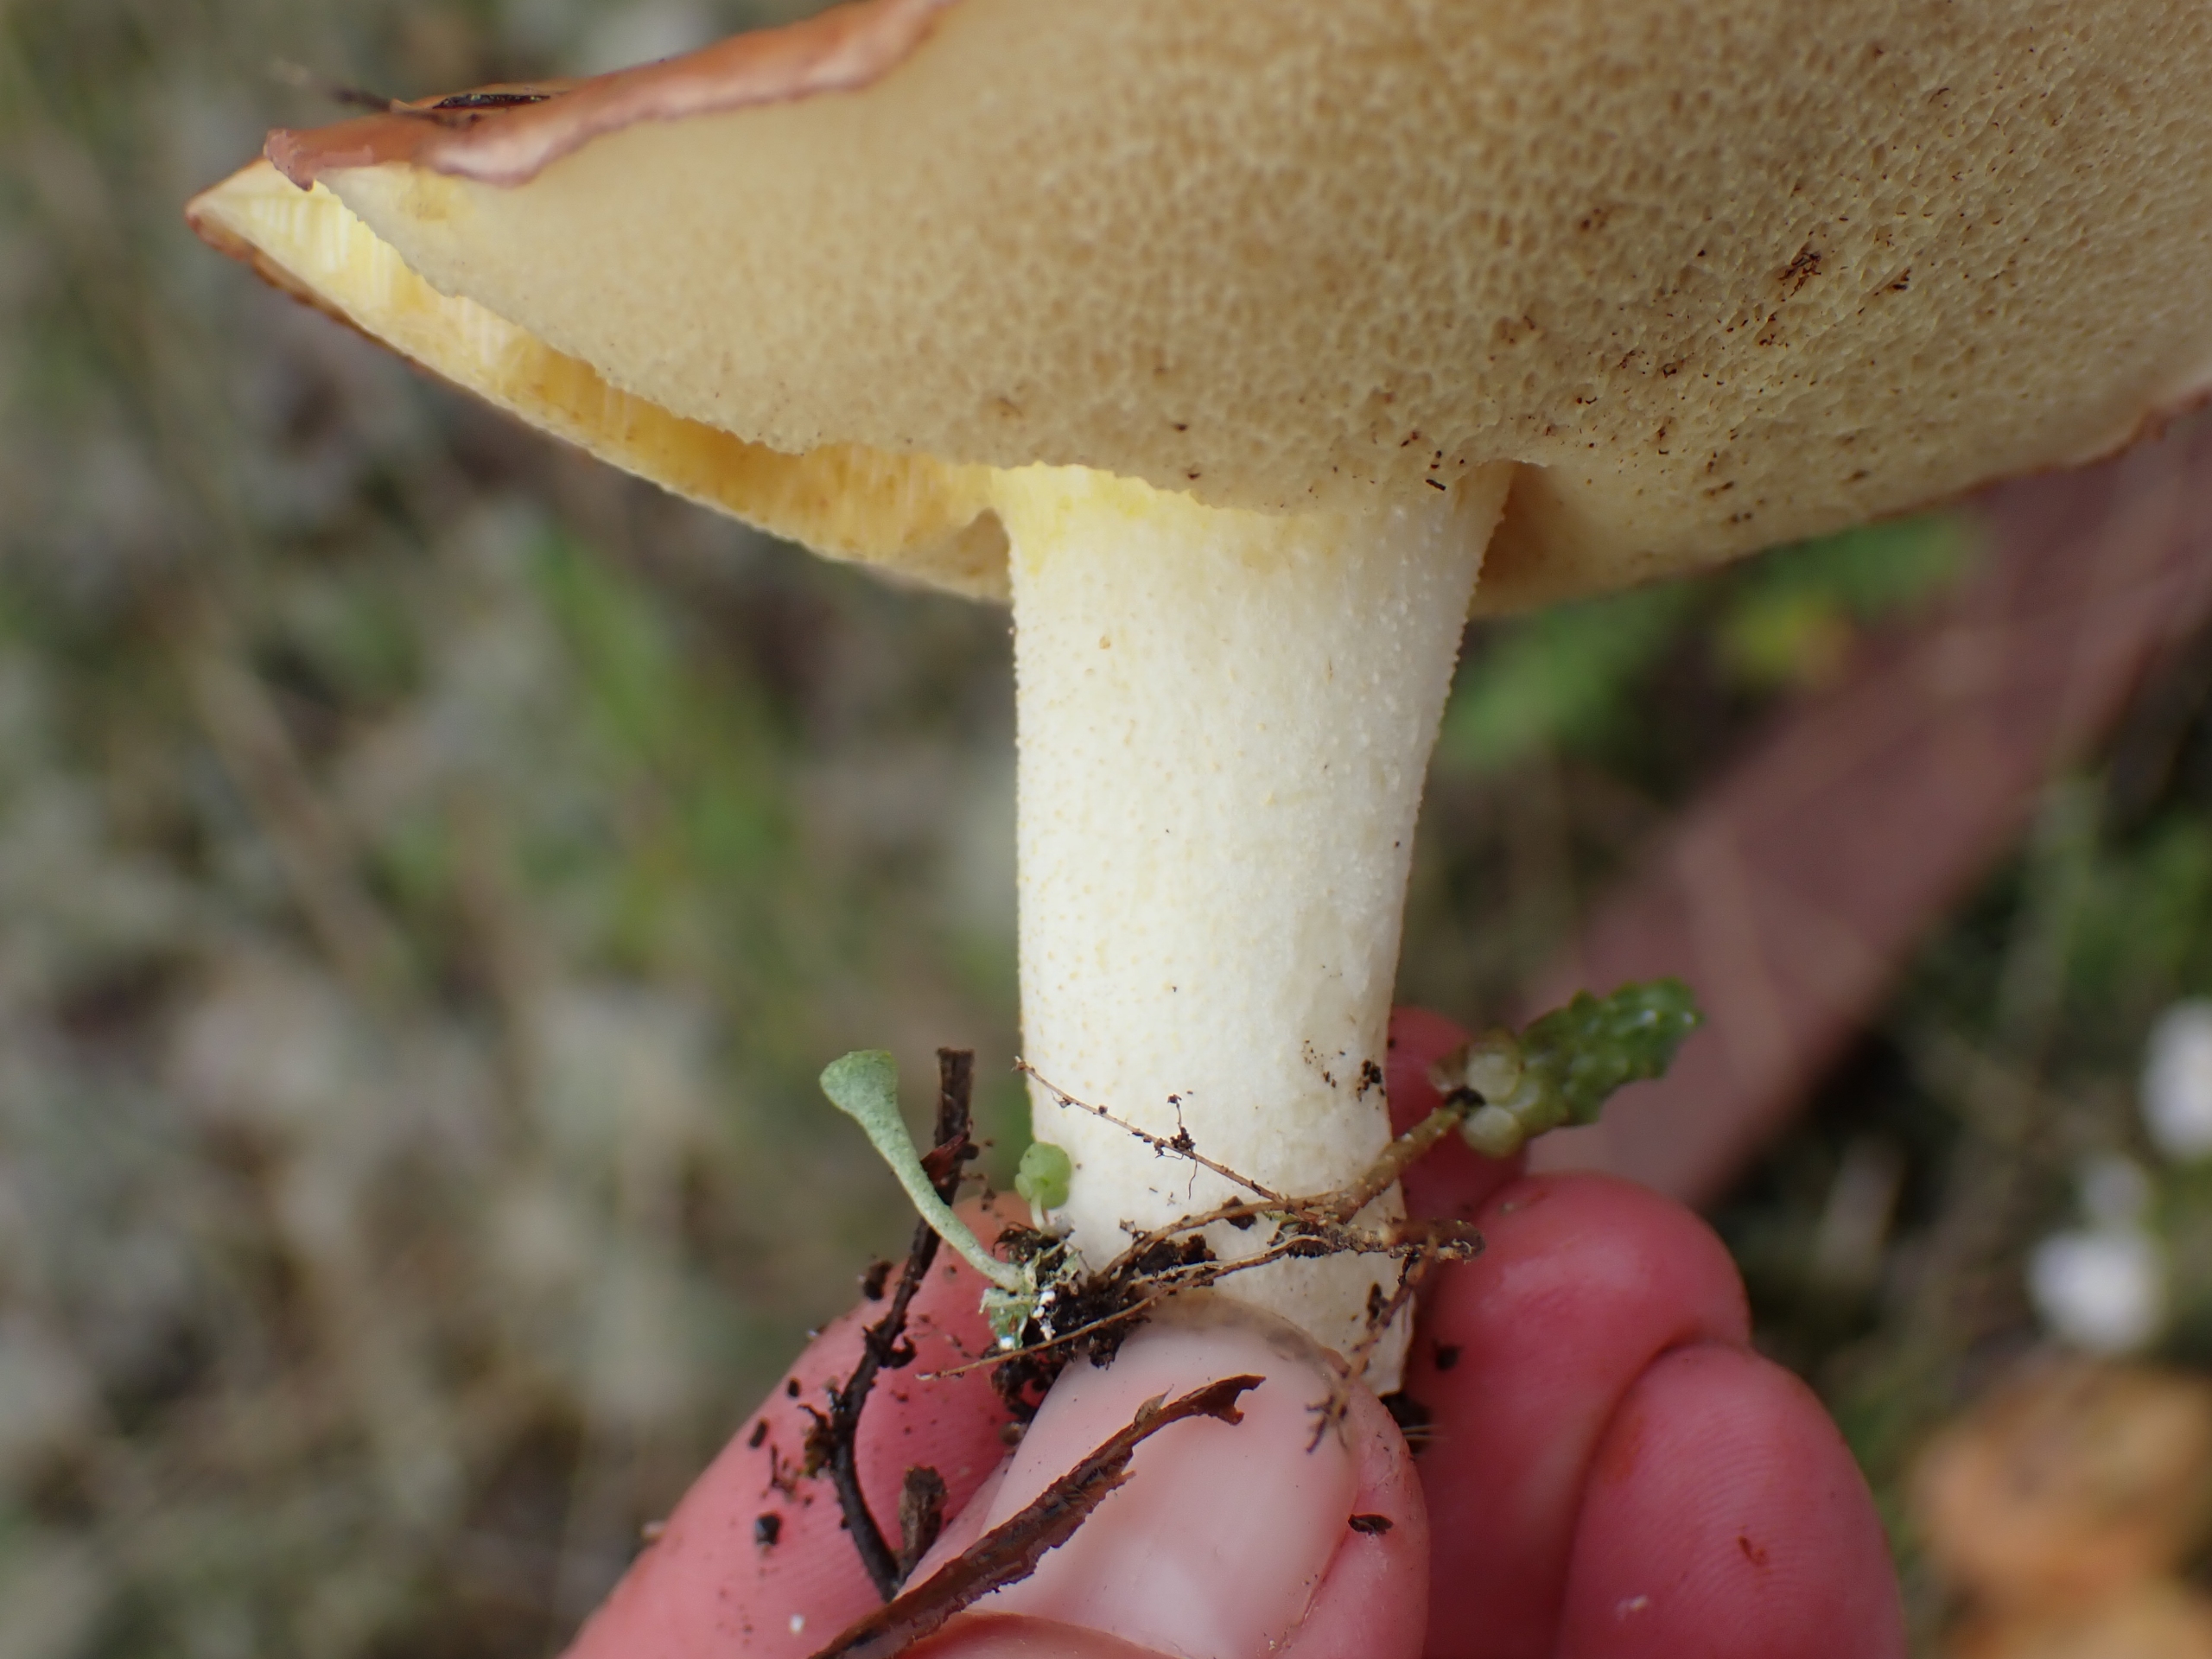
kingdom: Fungi
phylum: Basidiomycota
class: Agaricomycetes
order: Boletales
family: Suillaceae
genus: Suillus
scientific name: Suillus granulatus
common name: Kornet slimrørhat
